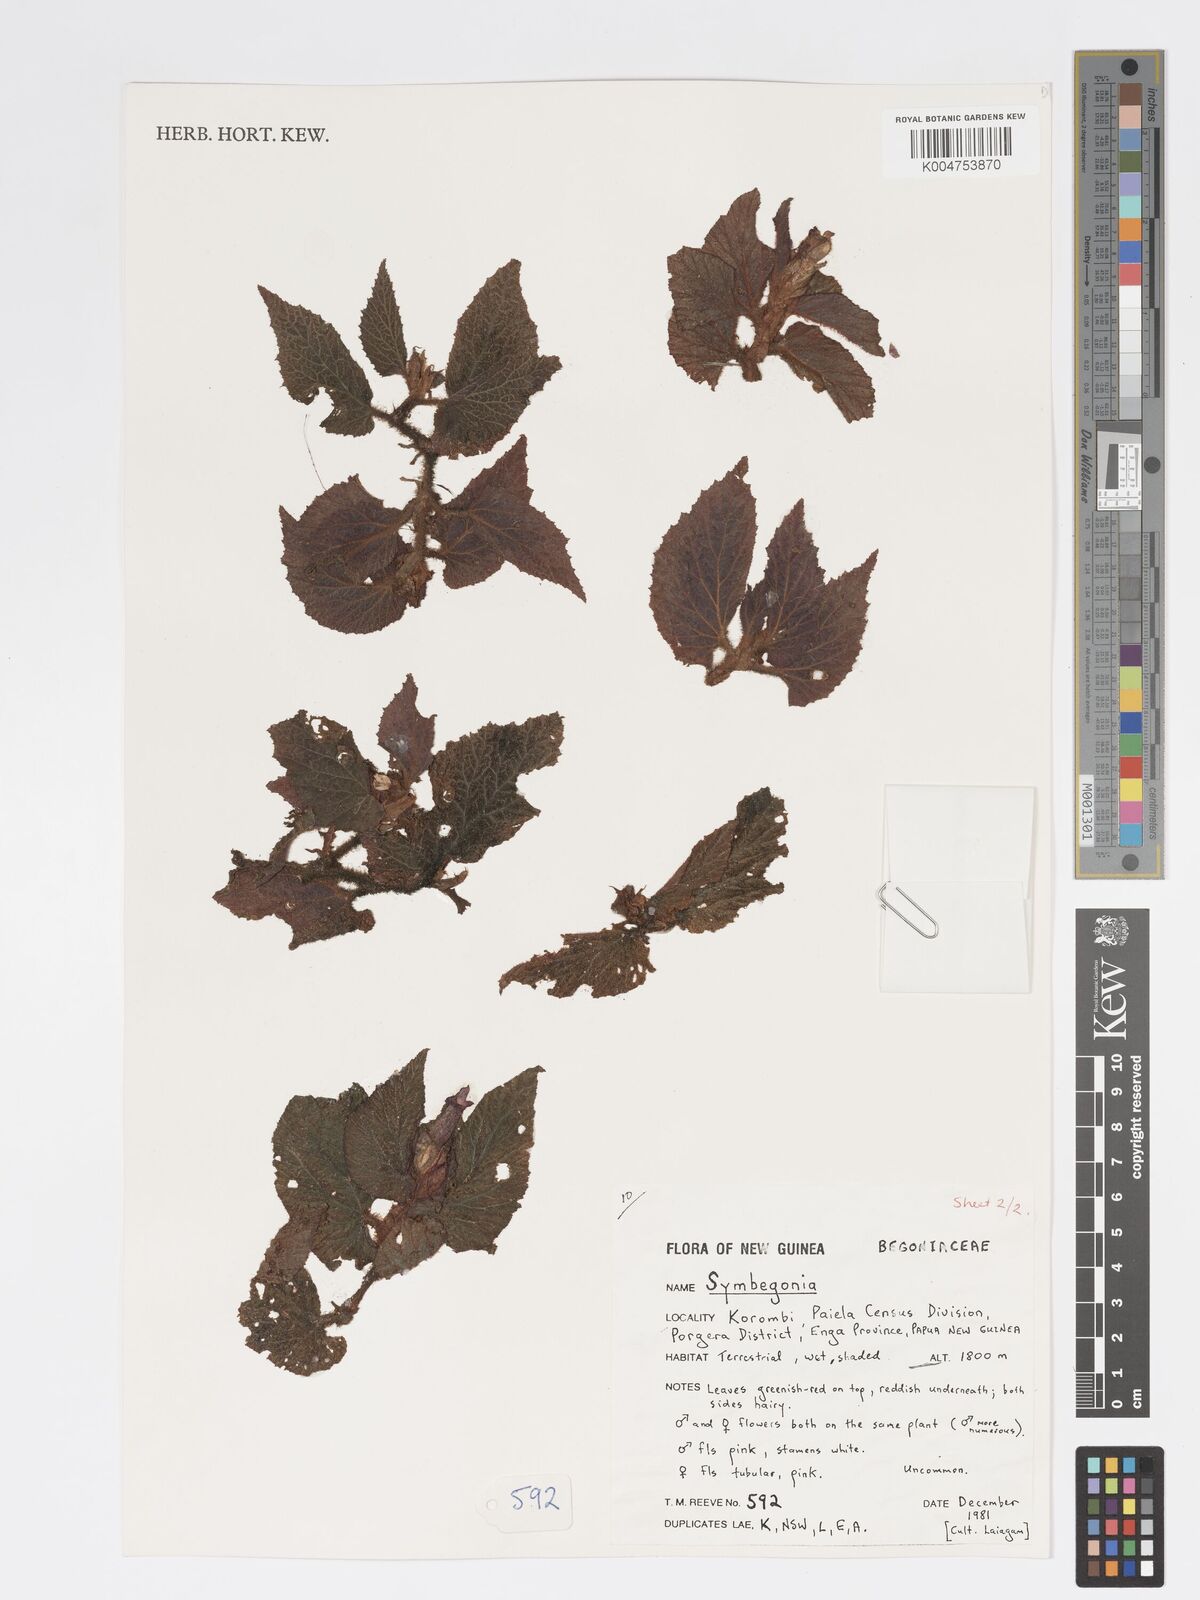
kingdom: Plantae
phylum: Tracheophyta
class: Magnoliopsida
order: Cucurbitales
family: Begoniaceae
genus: Begonia
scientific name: Begonia
